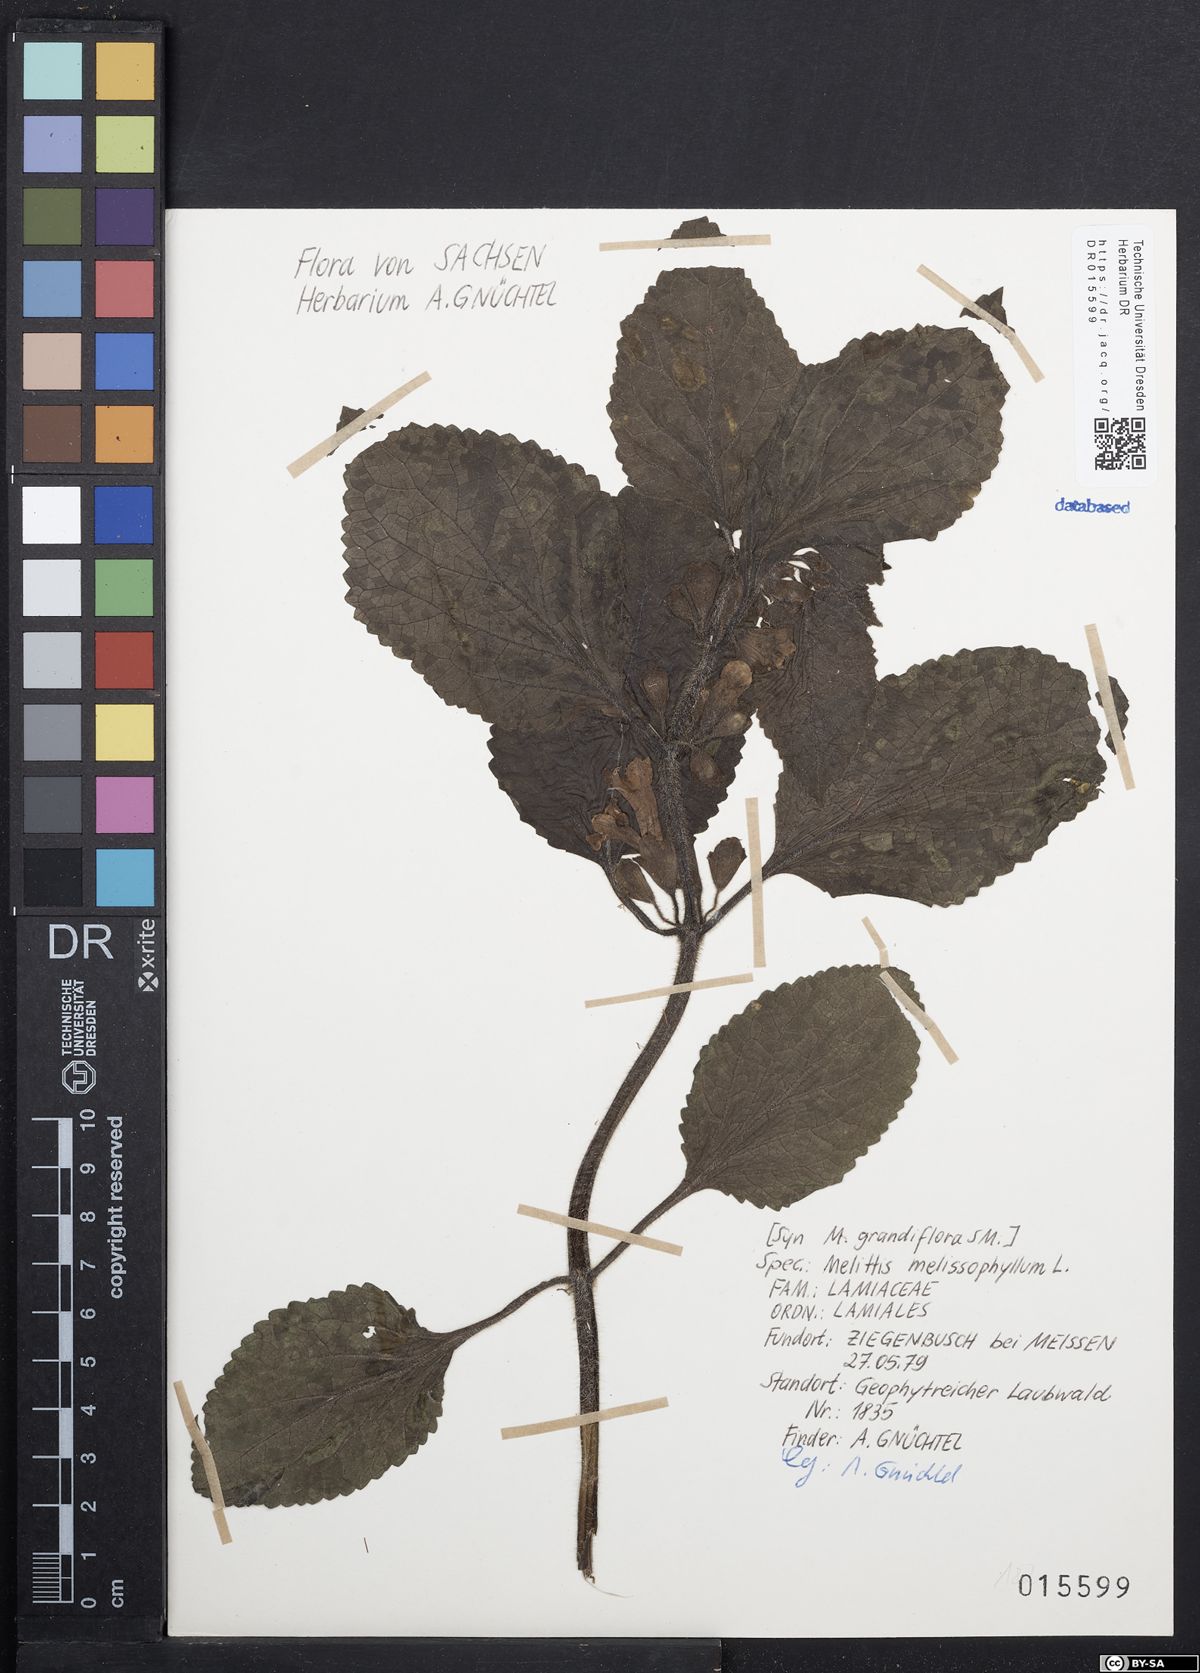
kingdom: Plantae
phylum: Tracheophyta
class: Magnoliopsida
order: Lamiales
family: Lamiaceae
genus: Melittis
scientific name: Melittis melissophyllum
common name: Bastard balm
